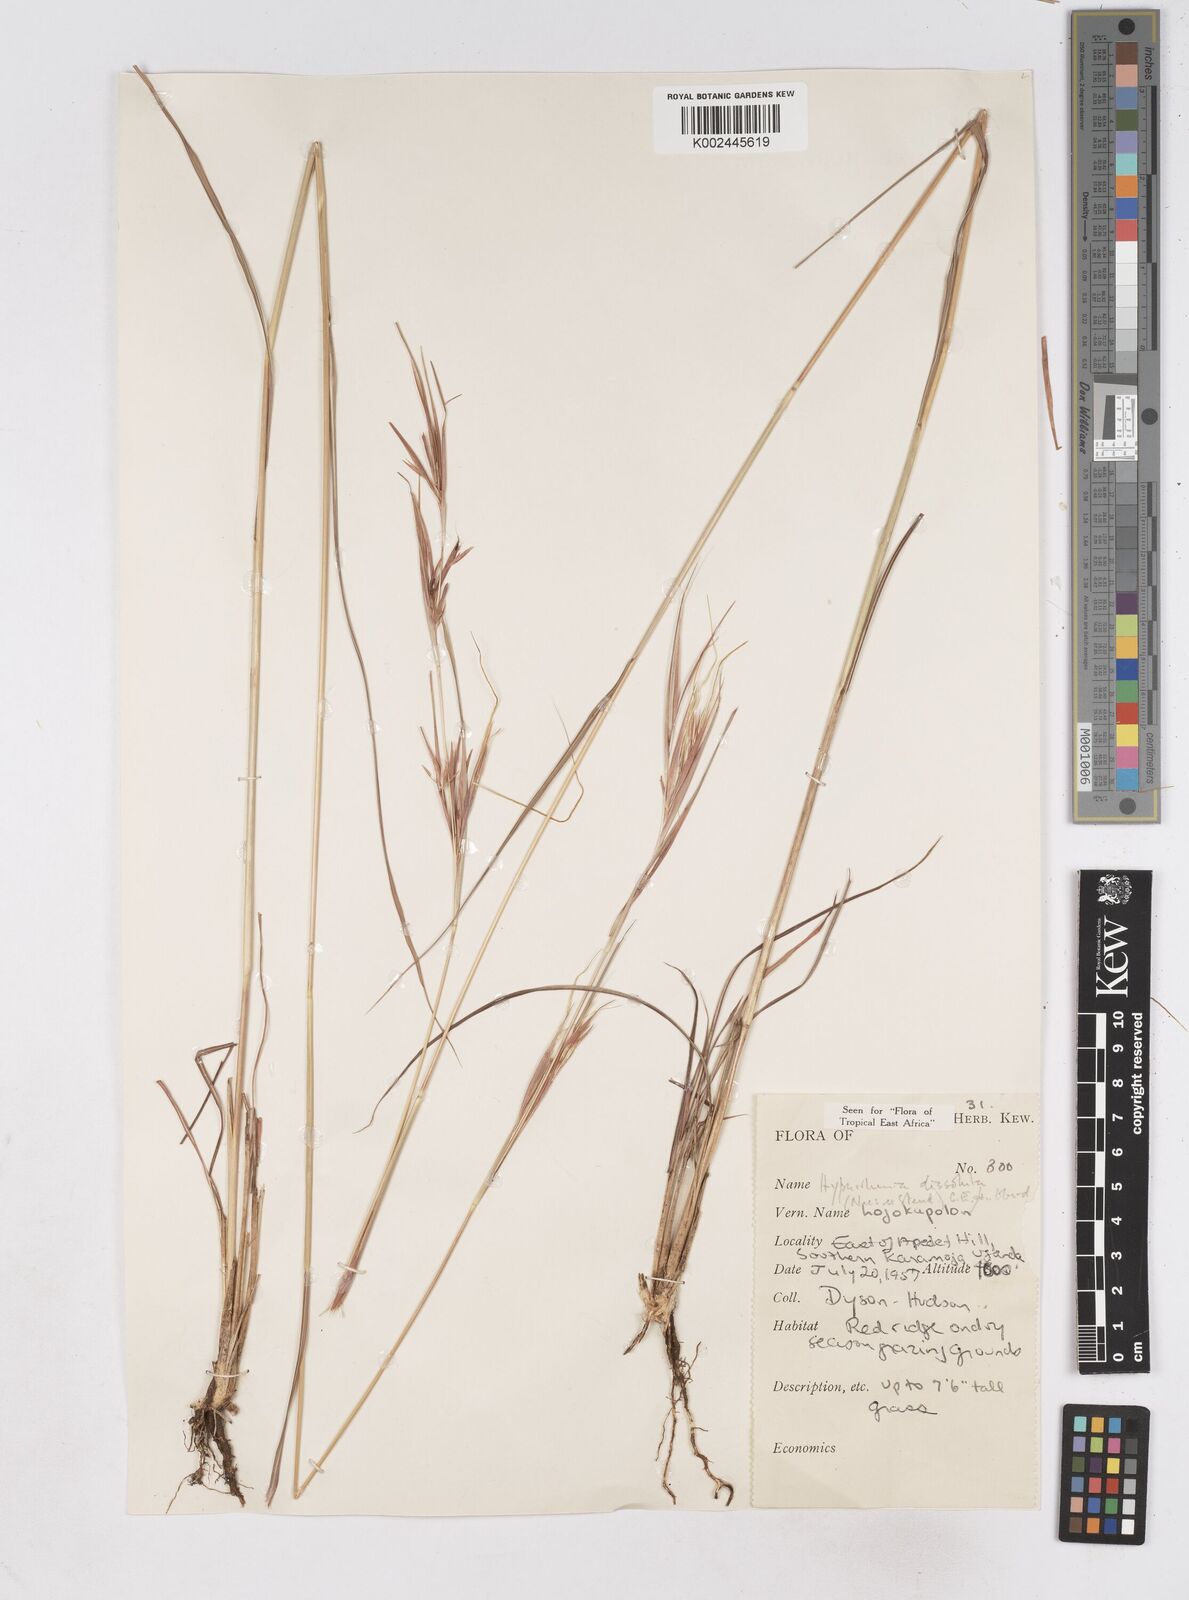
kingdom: Plantae
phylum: Tracheophyta
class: Liliopsida
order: Poales
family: Poaceae
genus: Hyperthelia
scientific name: Hyperthelia dissoluta
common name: Yellow thatching grass
